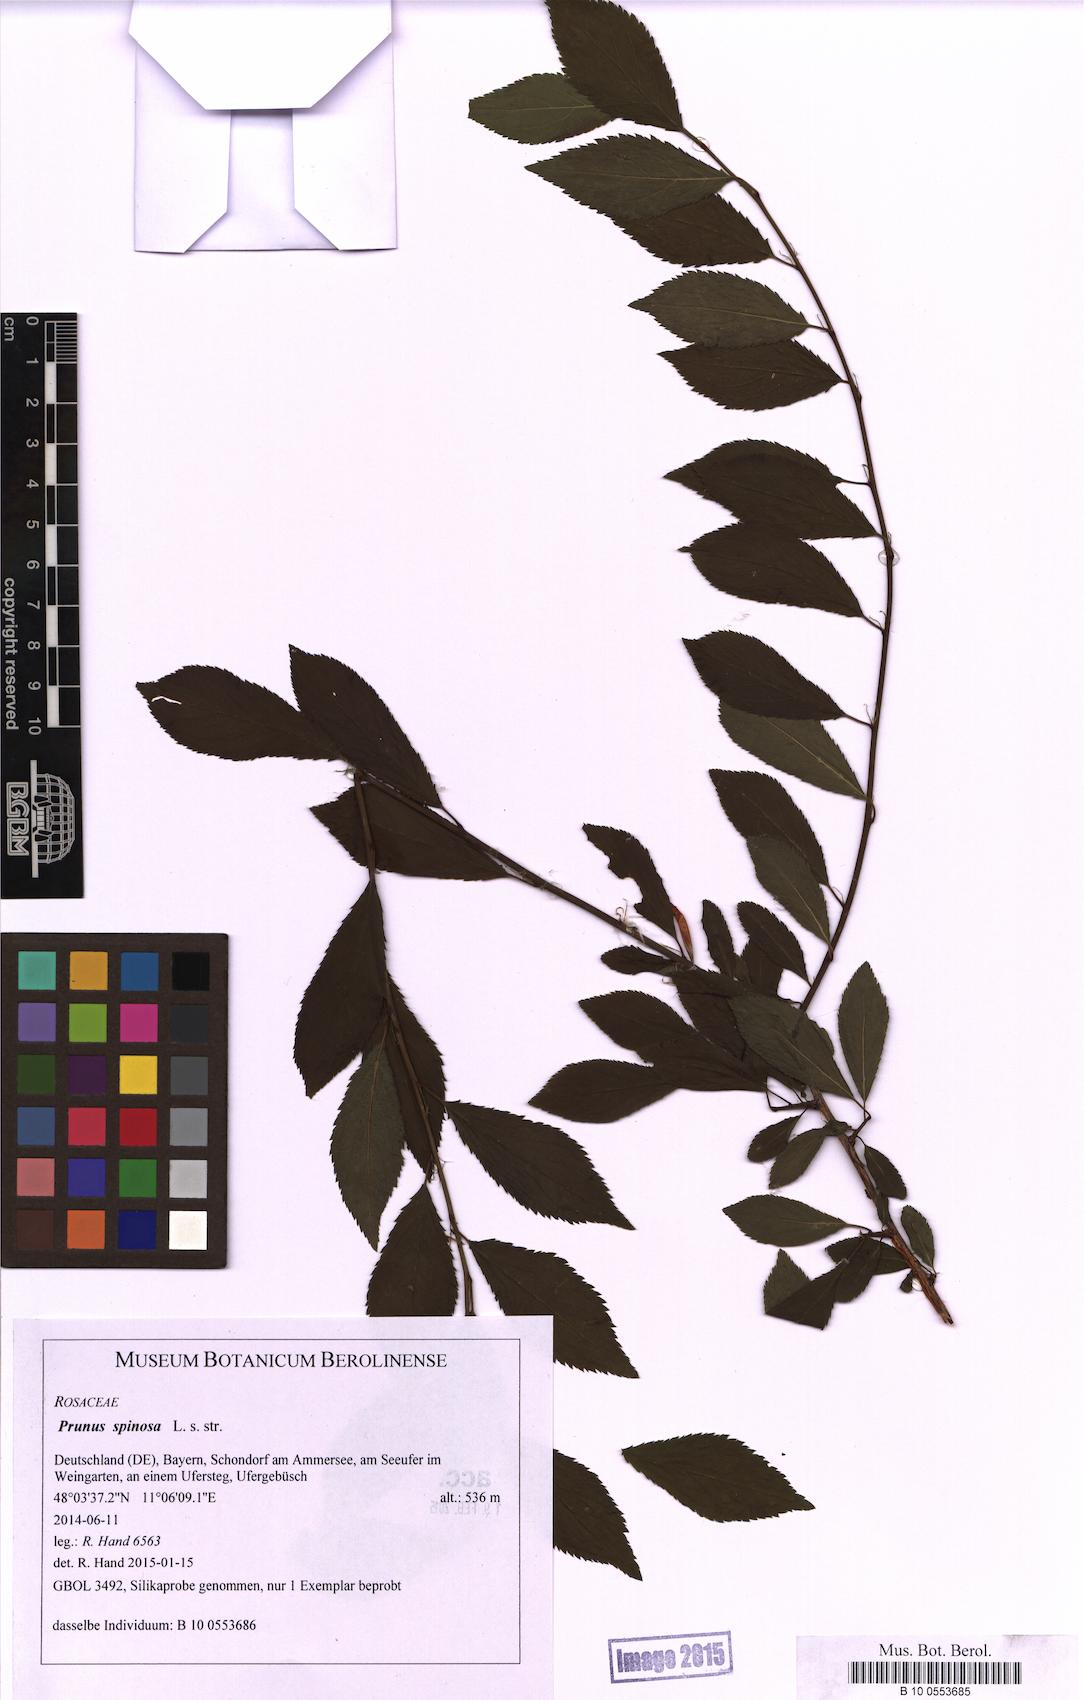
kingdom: Plantae
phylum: Tracheophyta
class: Magnoliopsida
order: Rosales
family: Rosaceae
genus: Prunus
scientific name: Prunus spinosa
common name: Blackthorn
